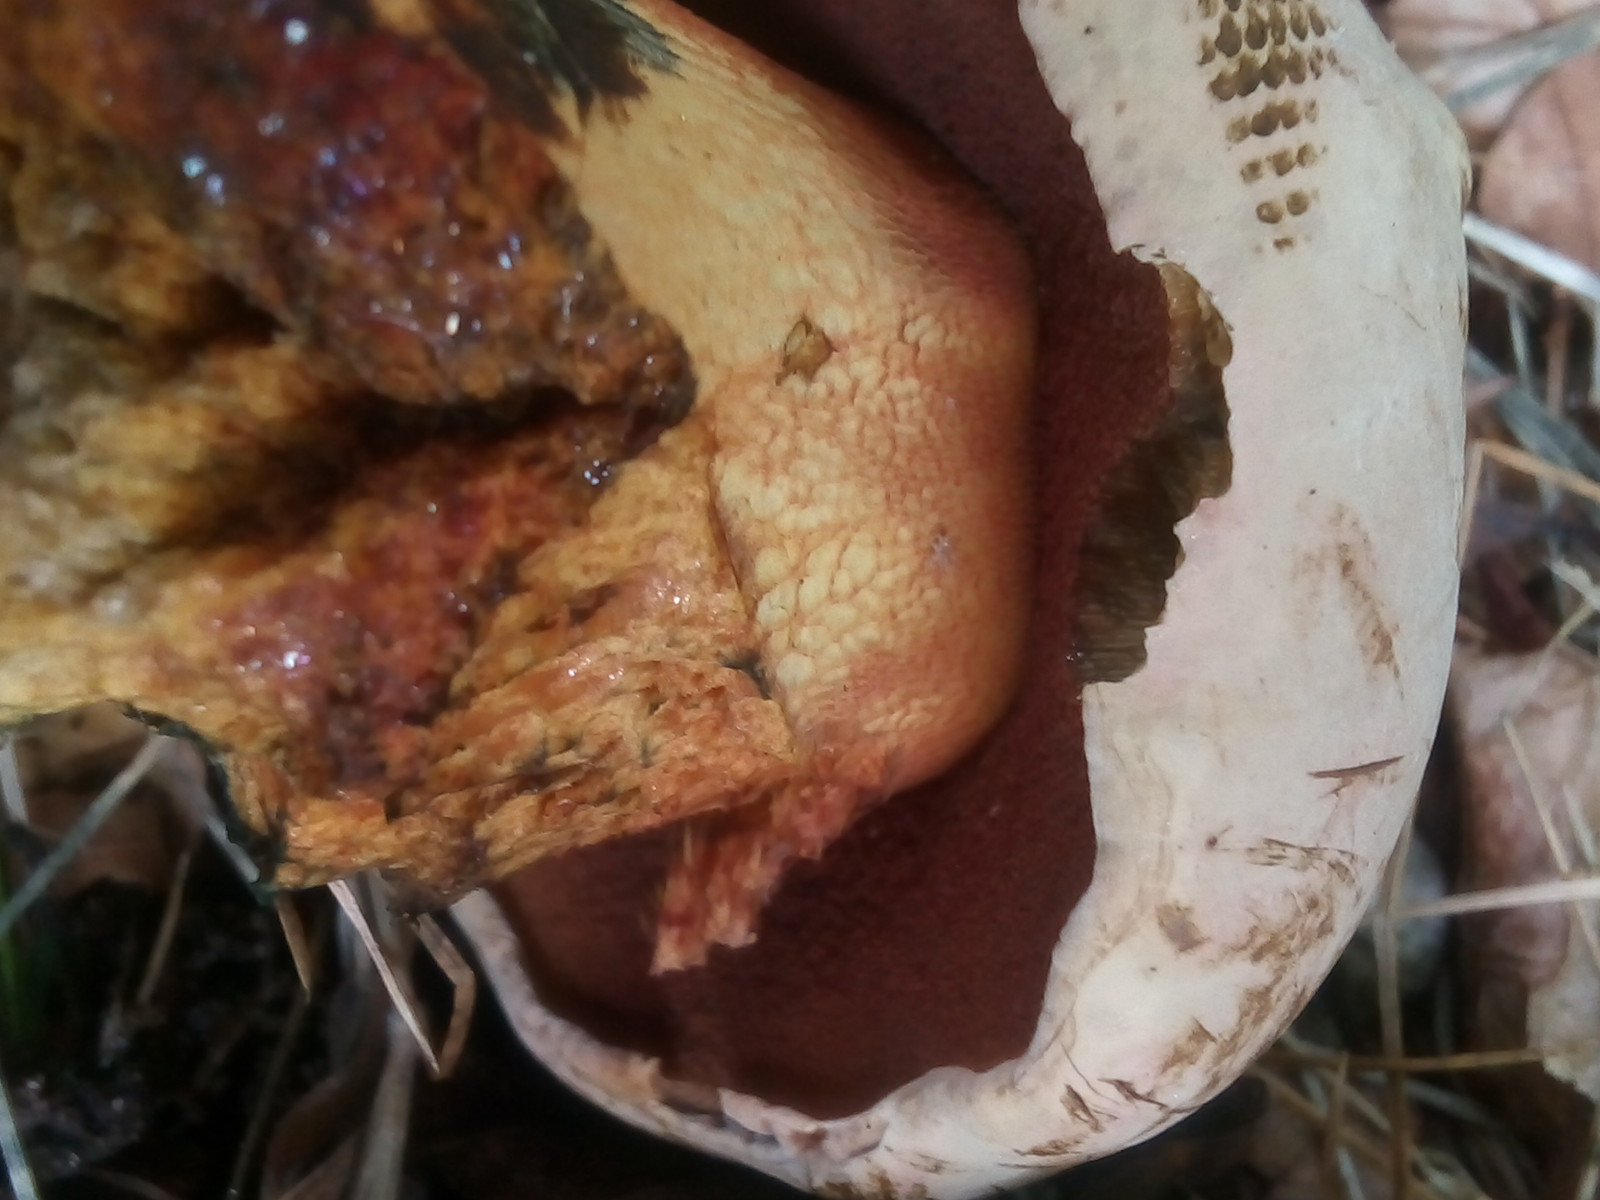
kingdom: Fungi
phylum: Basidiomycota
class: Agaricomycetes
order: Boletales
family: Boletaceae
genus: Suillellus
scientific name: Suillellus luridus
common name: netstokket indigorørhat
